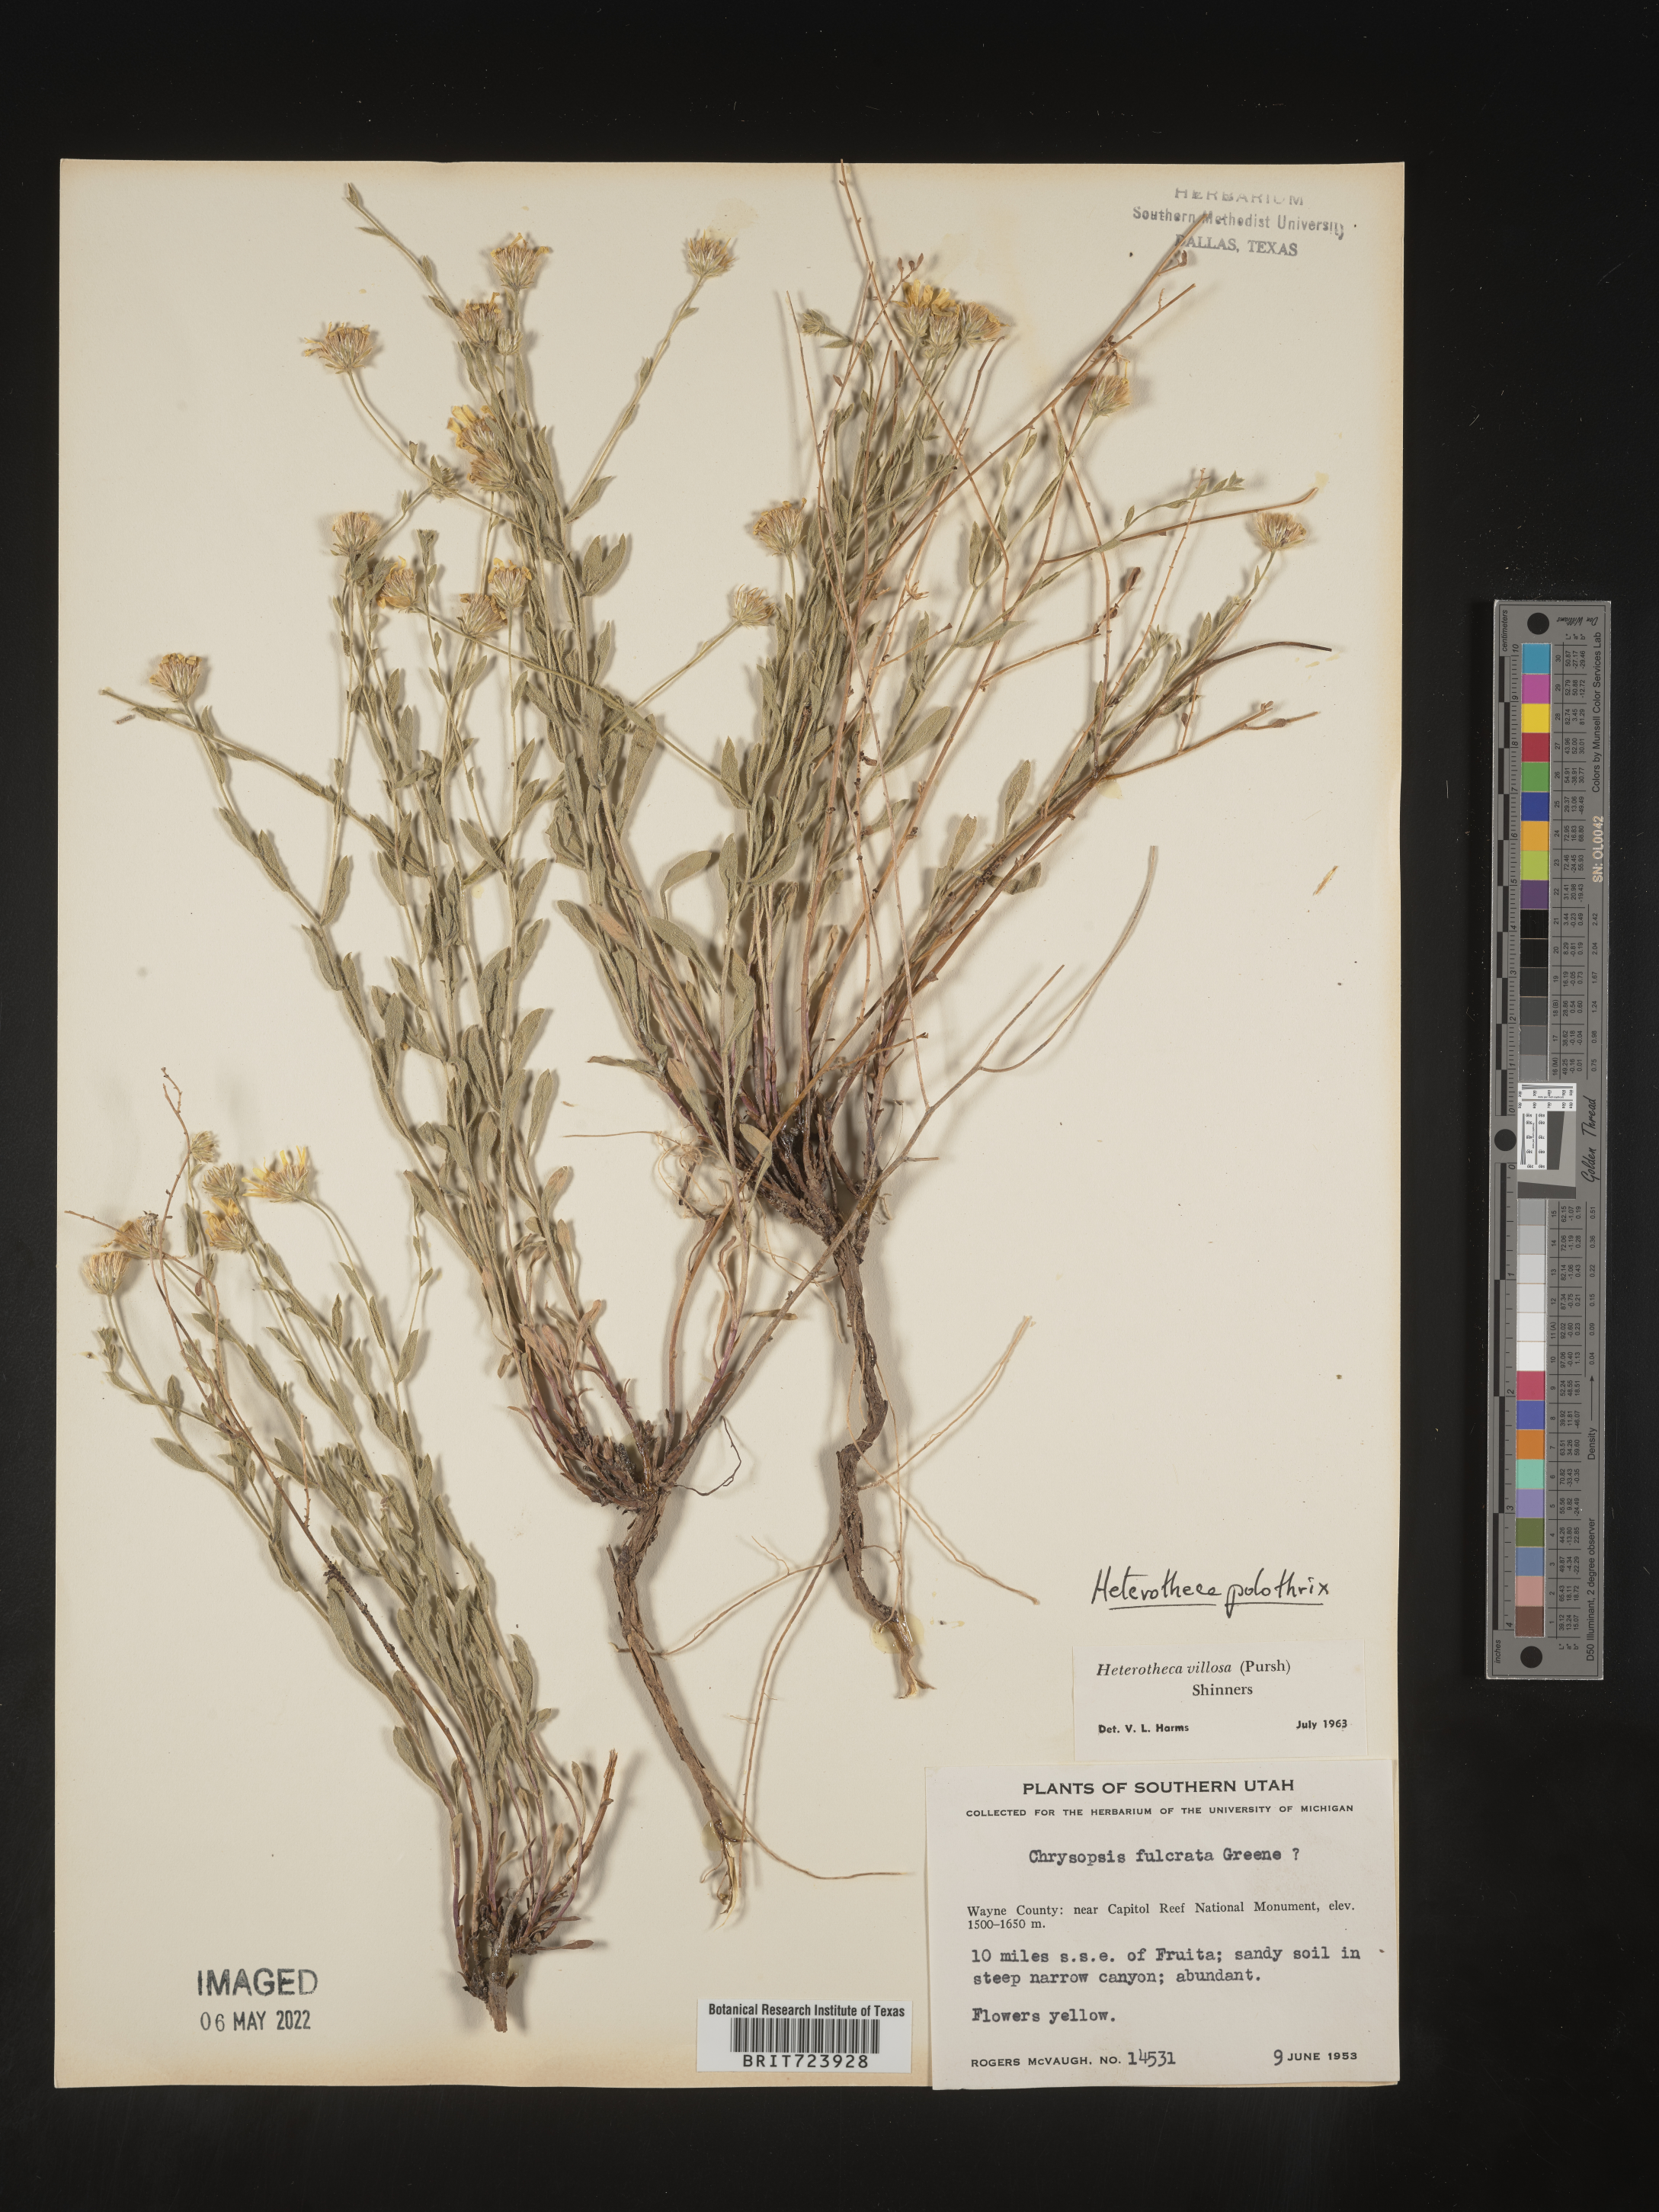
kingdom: Plantae
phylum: Tracheophyta
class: Magnoliopsida
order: Asterales
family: Asteraceae
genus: Heterotheca
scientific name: Heterotheca polothrix
